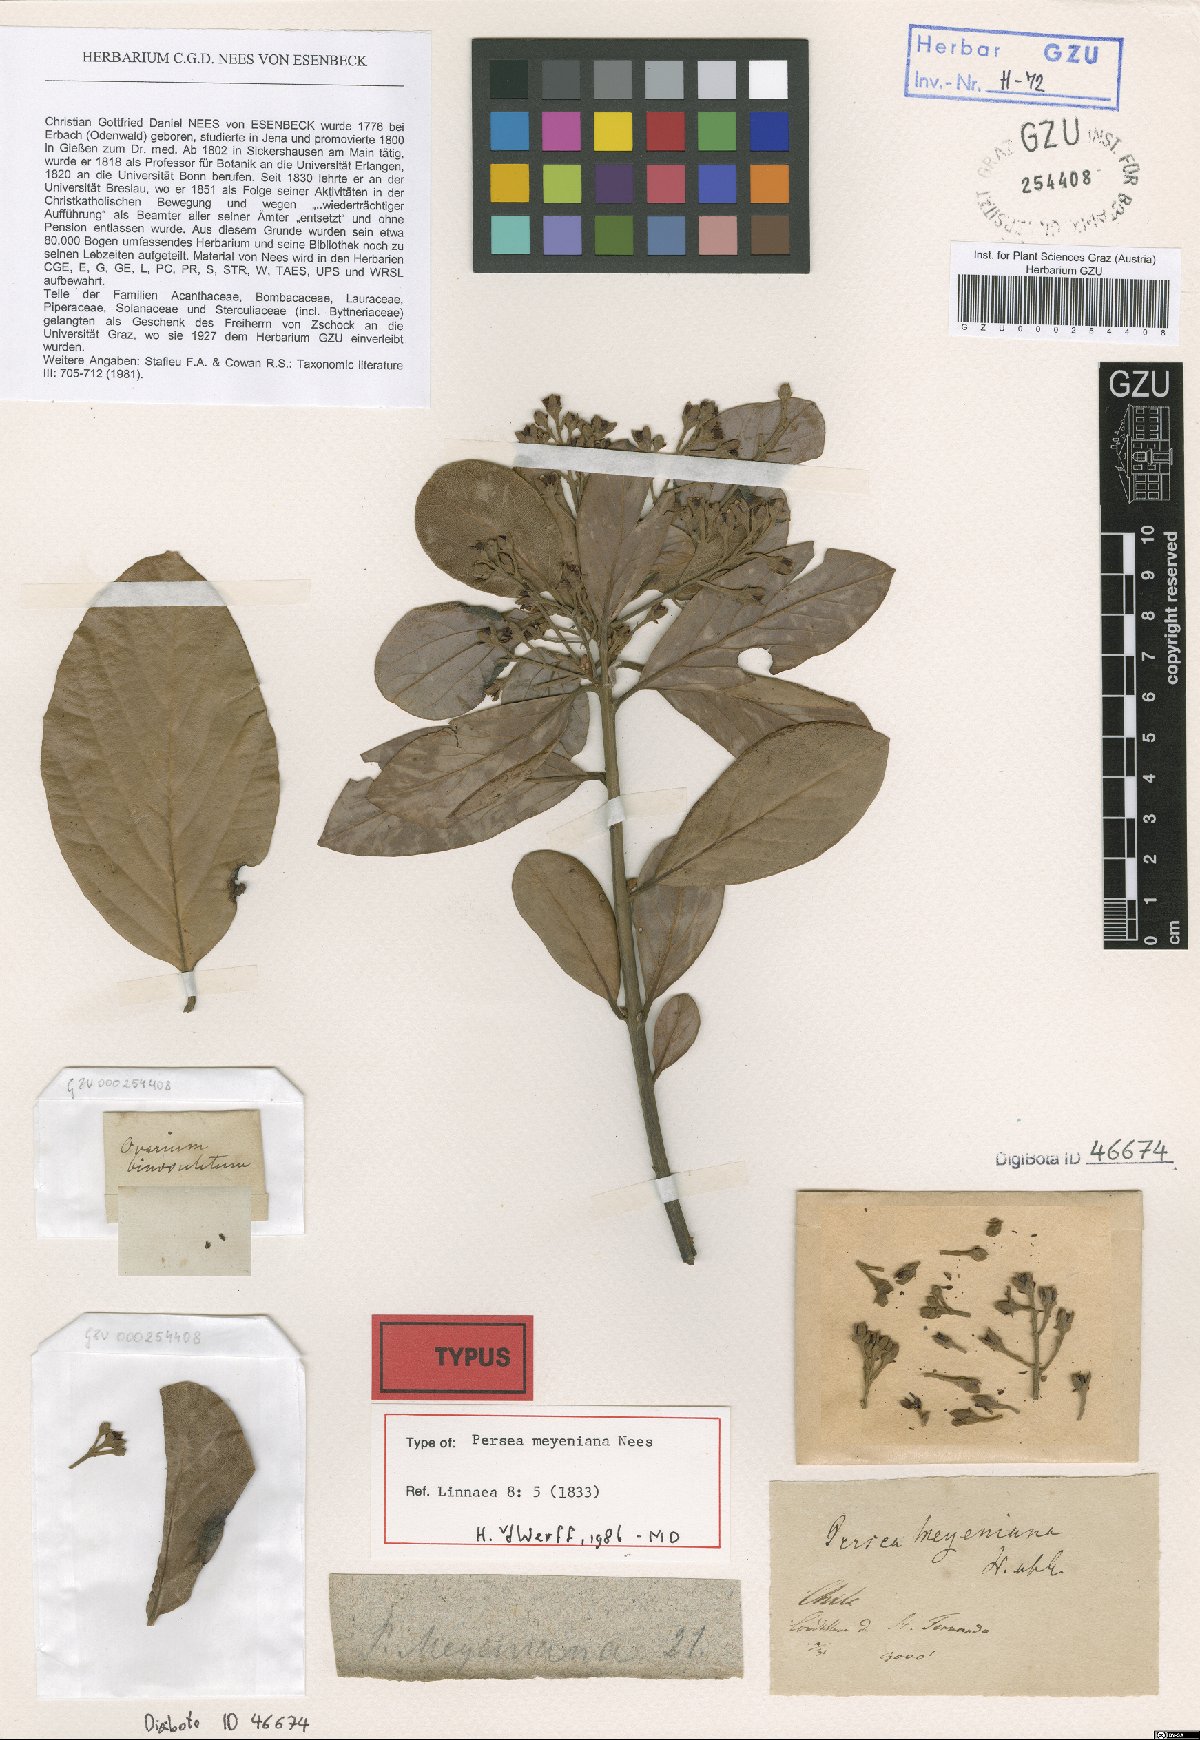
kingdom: Plantae
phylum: Tracheophyta
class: Magnoliopsida
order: Laurales
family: Lauraceae
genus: Persea
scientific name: Persea lingue
